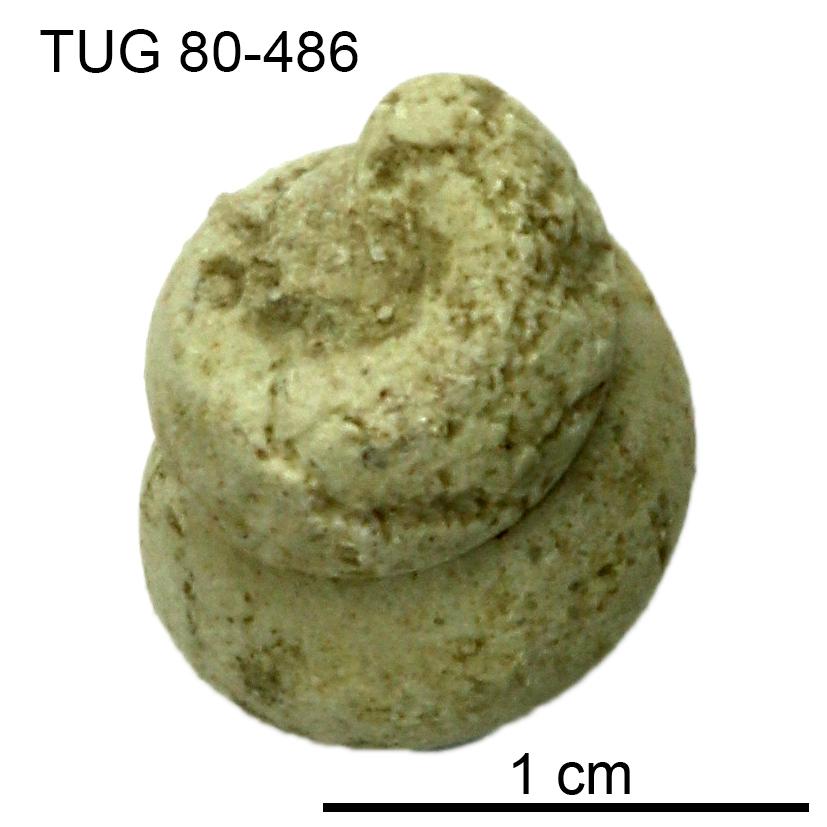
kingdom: Animalia
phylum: Mollusca
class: Gastropoda
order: Pleurotomariida
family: Murchisoniidae
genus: Hormotoma
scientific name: Hormotoma
